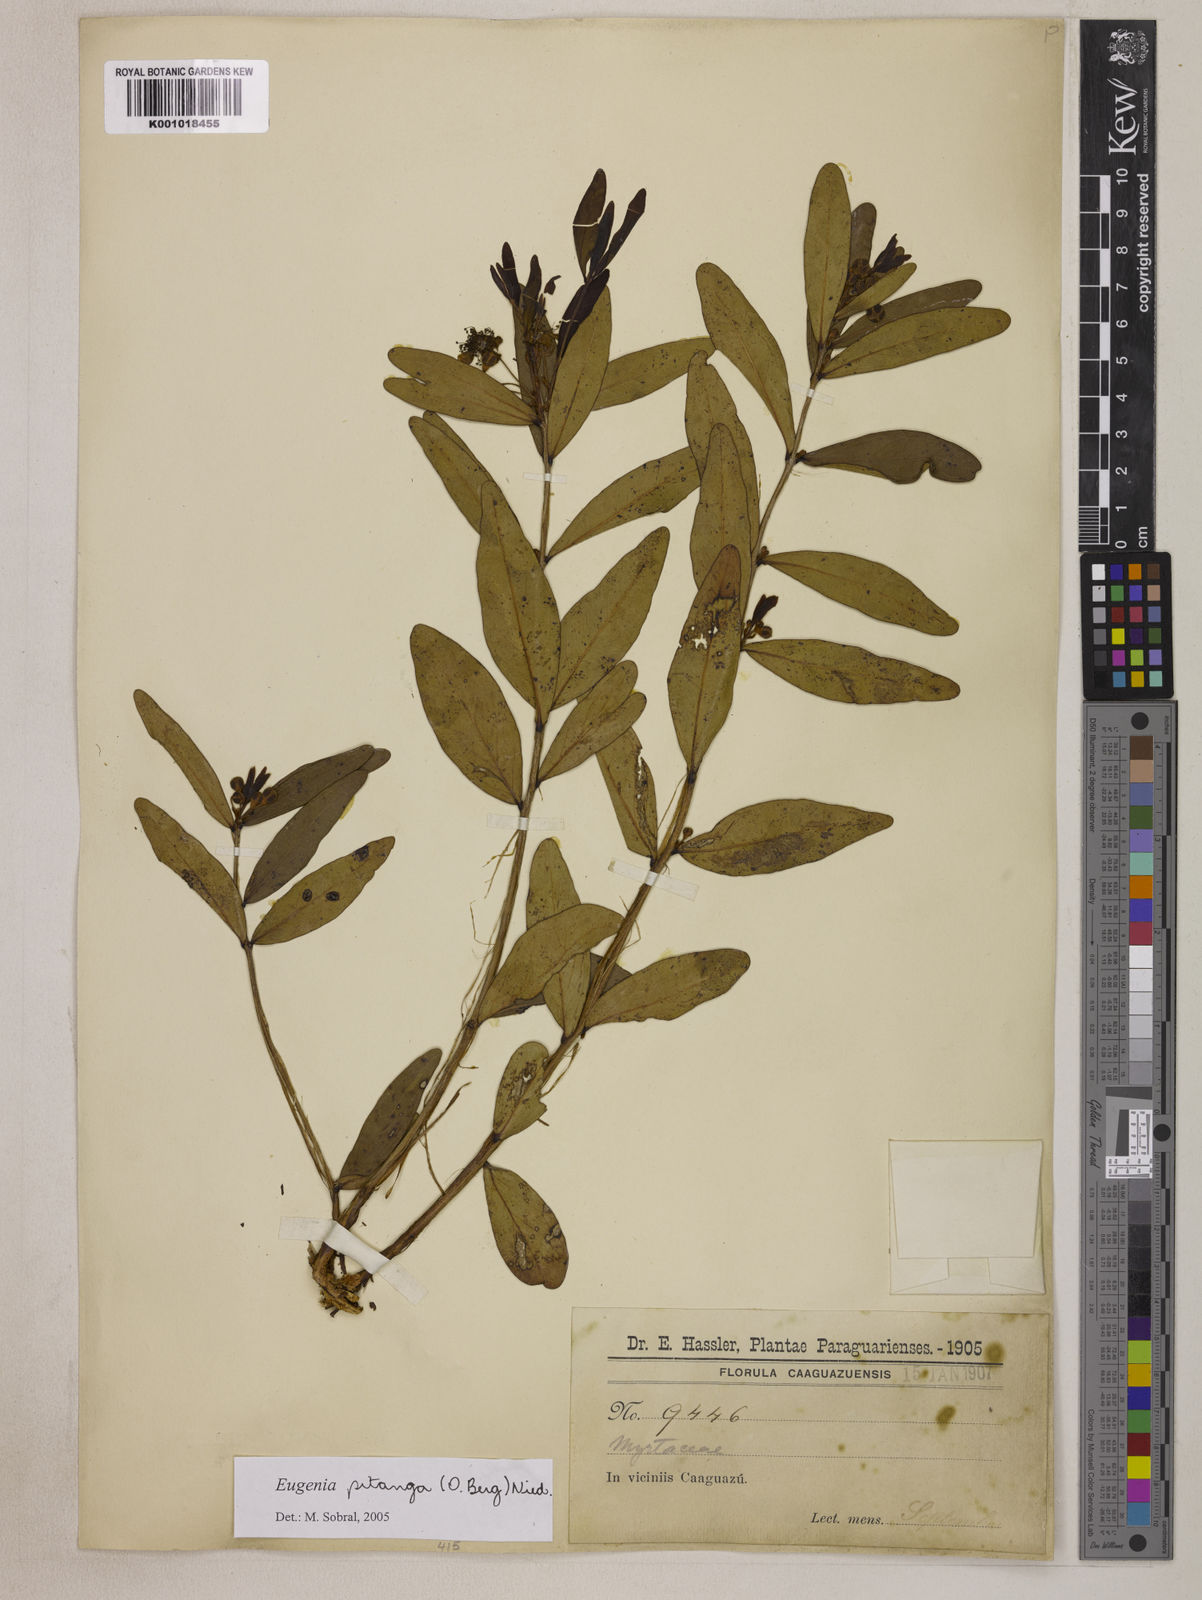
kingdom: Plantae
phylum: Tracheophyta
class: Magnoliopsida
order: Myrtales
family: Myrtaceae
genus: Eugenia
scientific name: Eugenia pitanga
